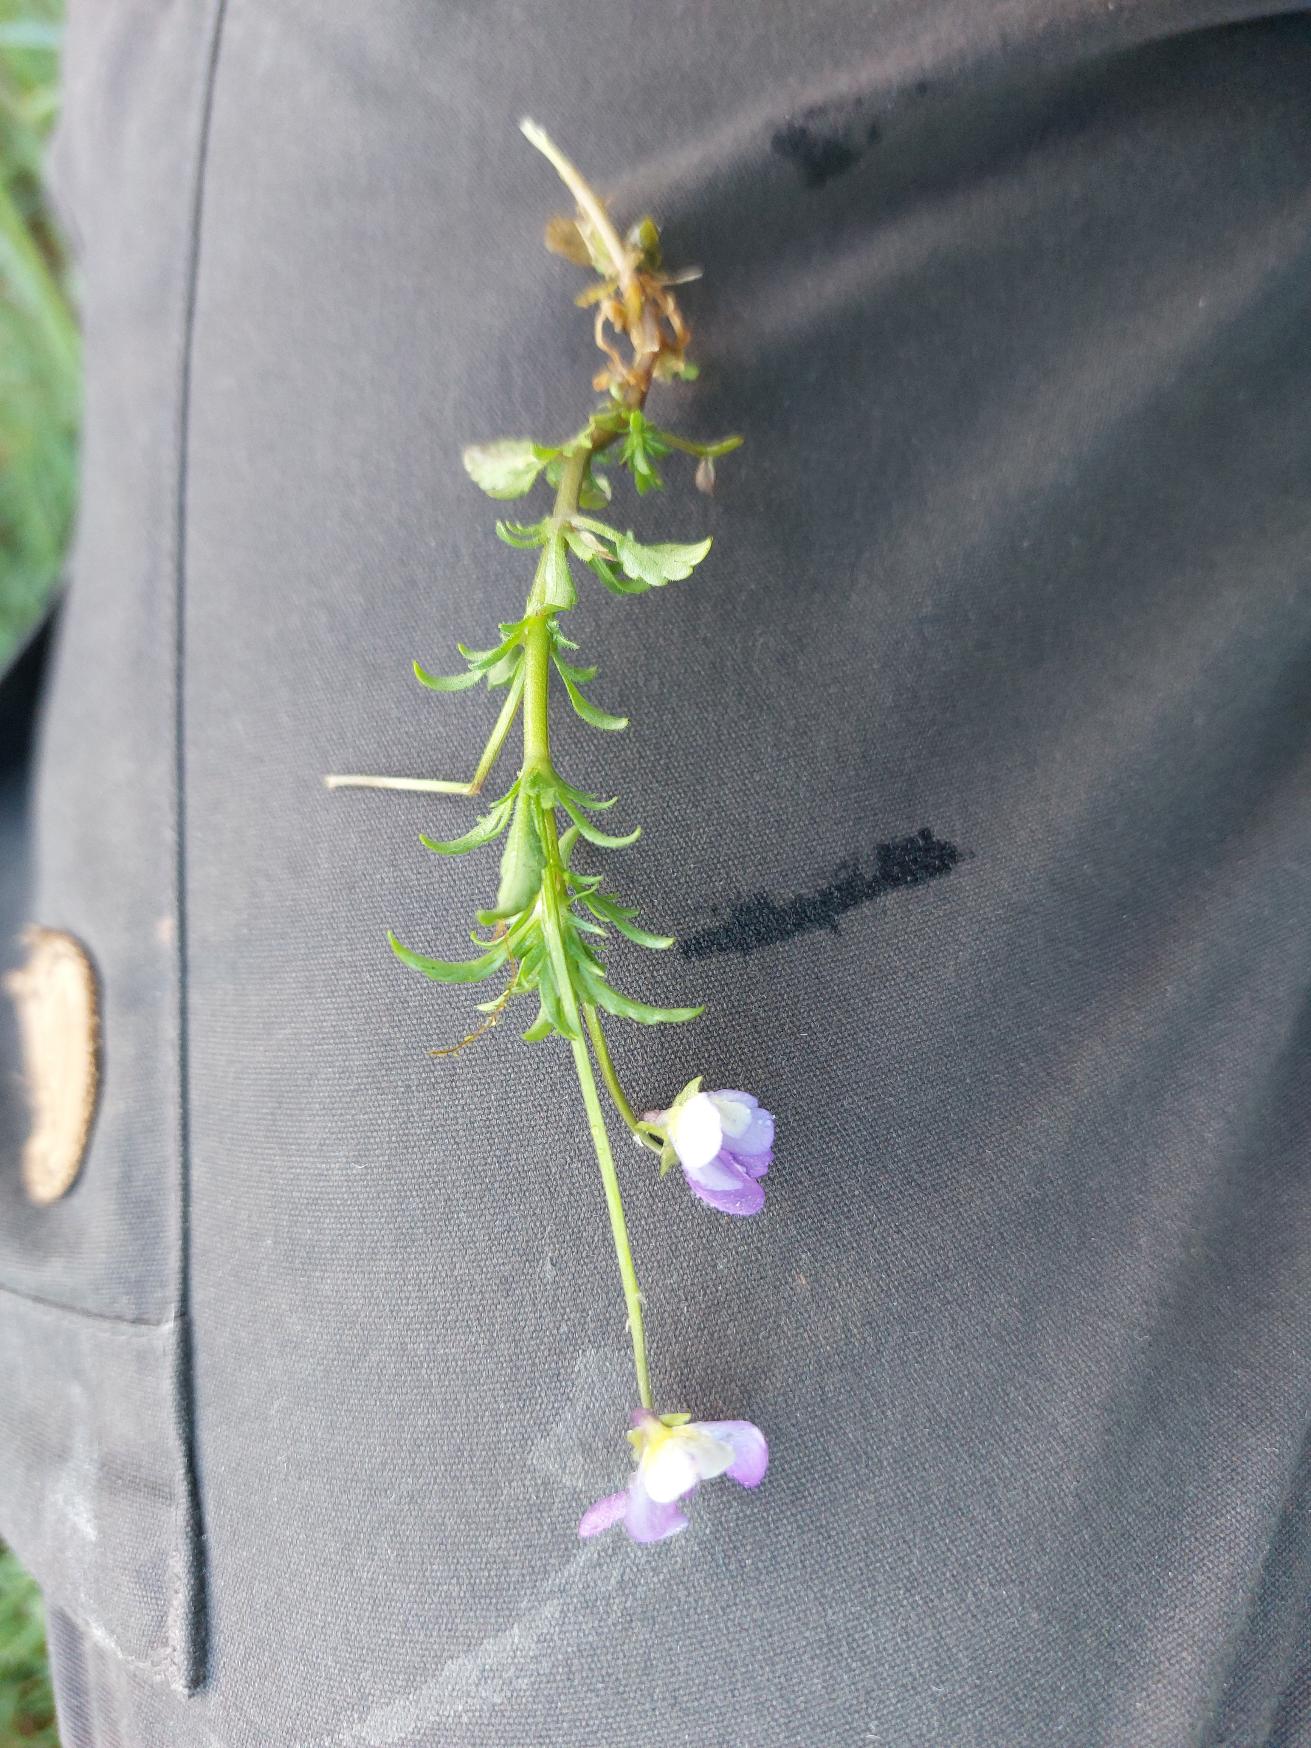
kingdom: Plantae
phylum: Tracheophyta
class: Magnoliopsida
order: Malpighiales
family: Violaceae
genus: Viola
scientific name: Viola tricolor
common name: Almindelig stedmoderblomst
